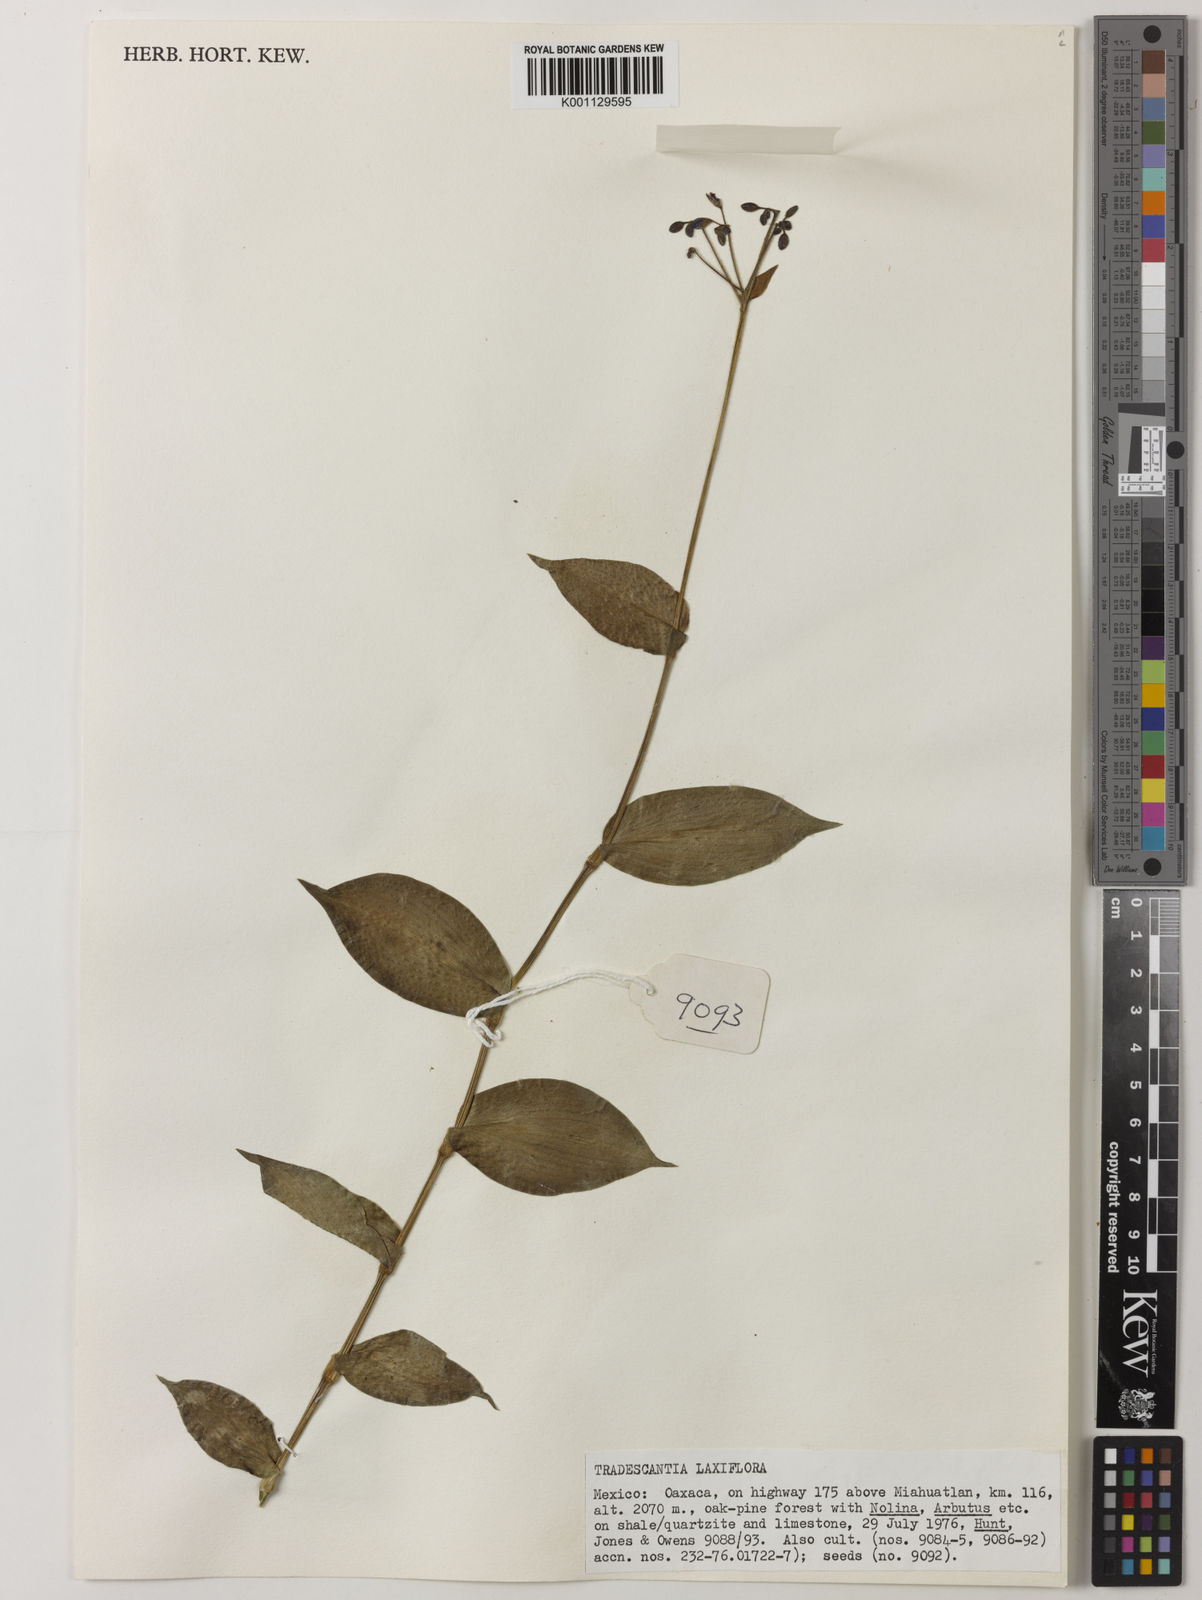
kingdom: Plantae
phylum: Tracheophyta
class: Liliopsida
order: Commelinales
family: Commelinaceae
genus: Thyrsanthemum
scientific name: Thyrsanthemum
